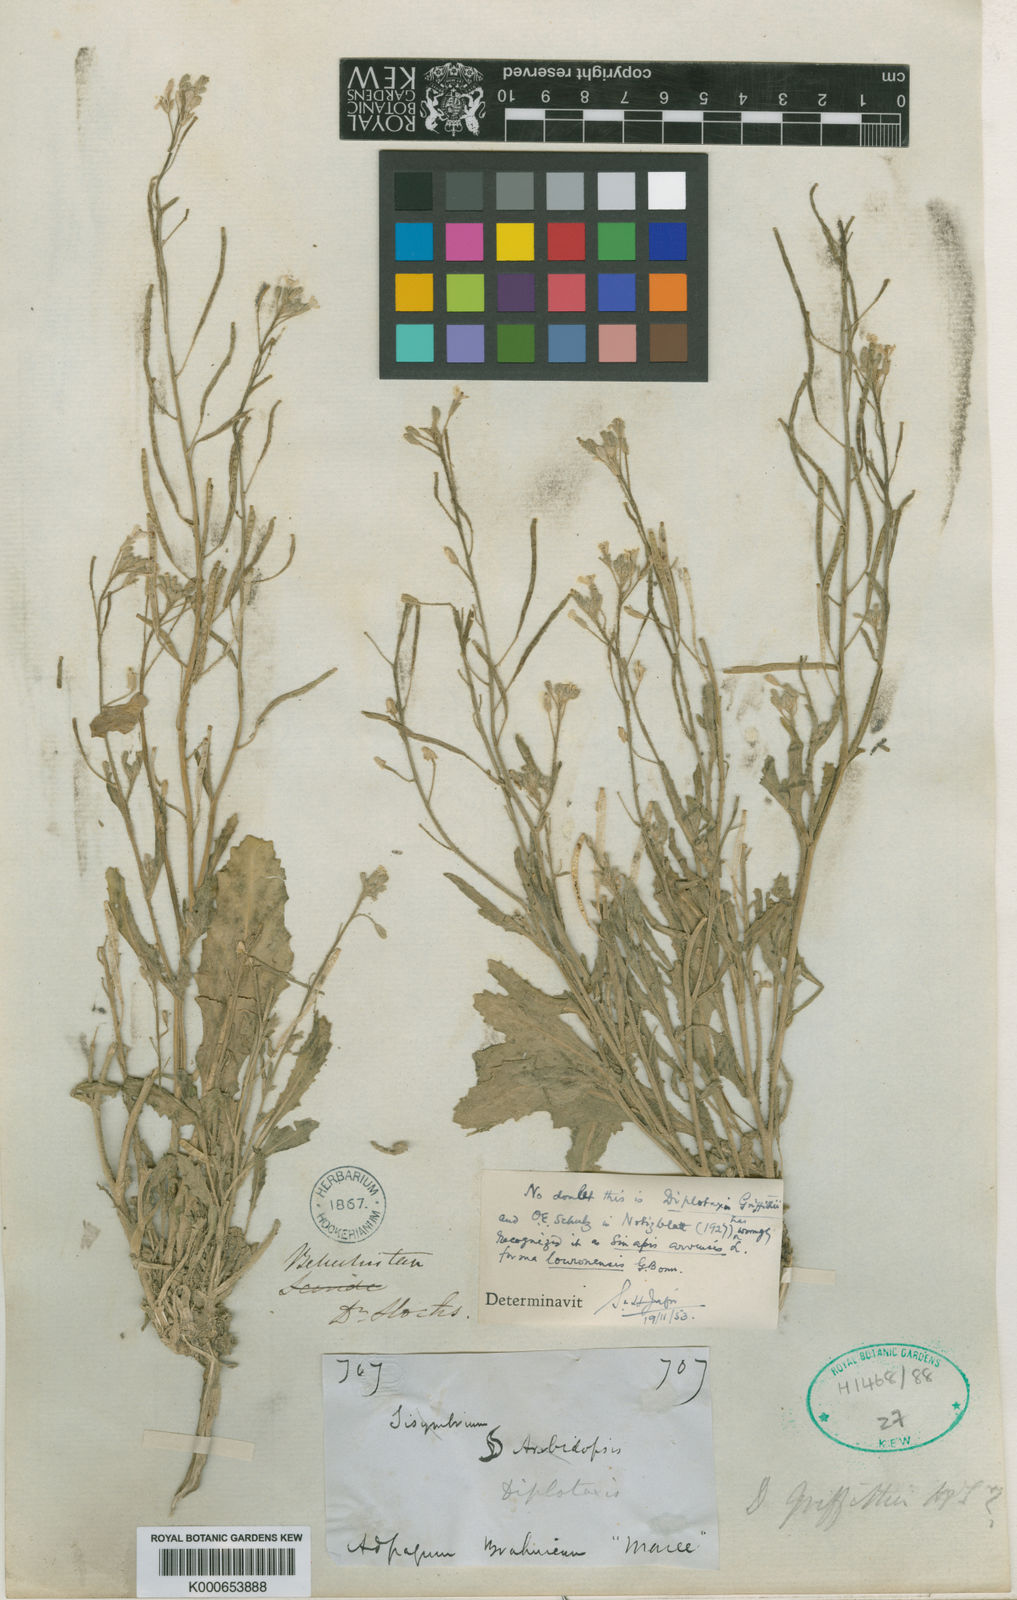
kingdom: Plantae
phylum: Tracheophyta
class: Magnoliopsida
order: Brassicales
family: Brassicaceae
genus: Diplotaxis
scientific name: Diplotaxis griffithii
